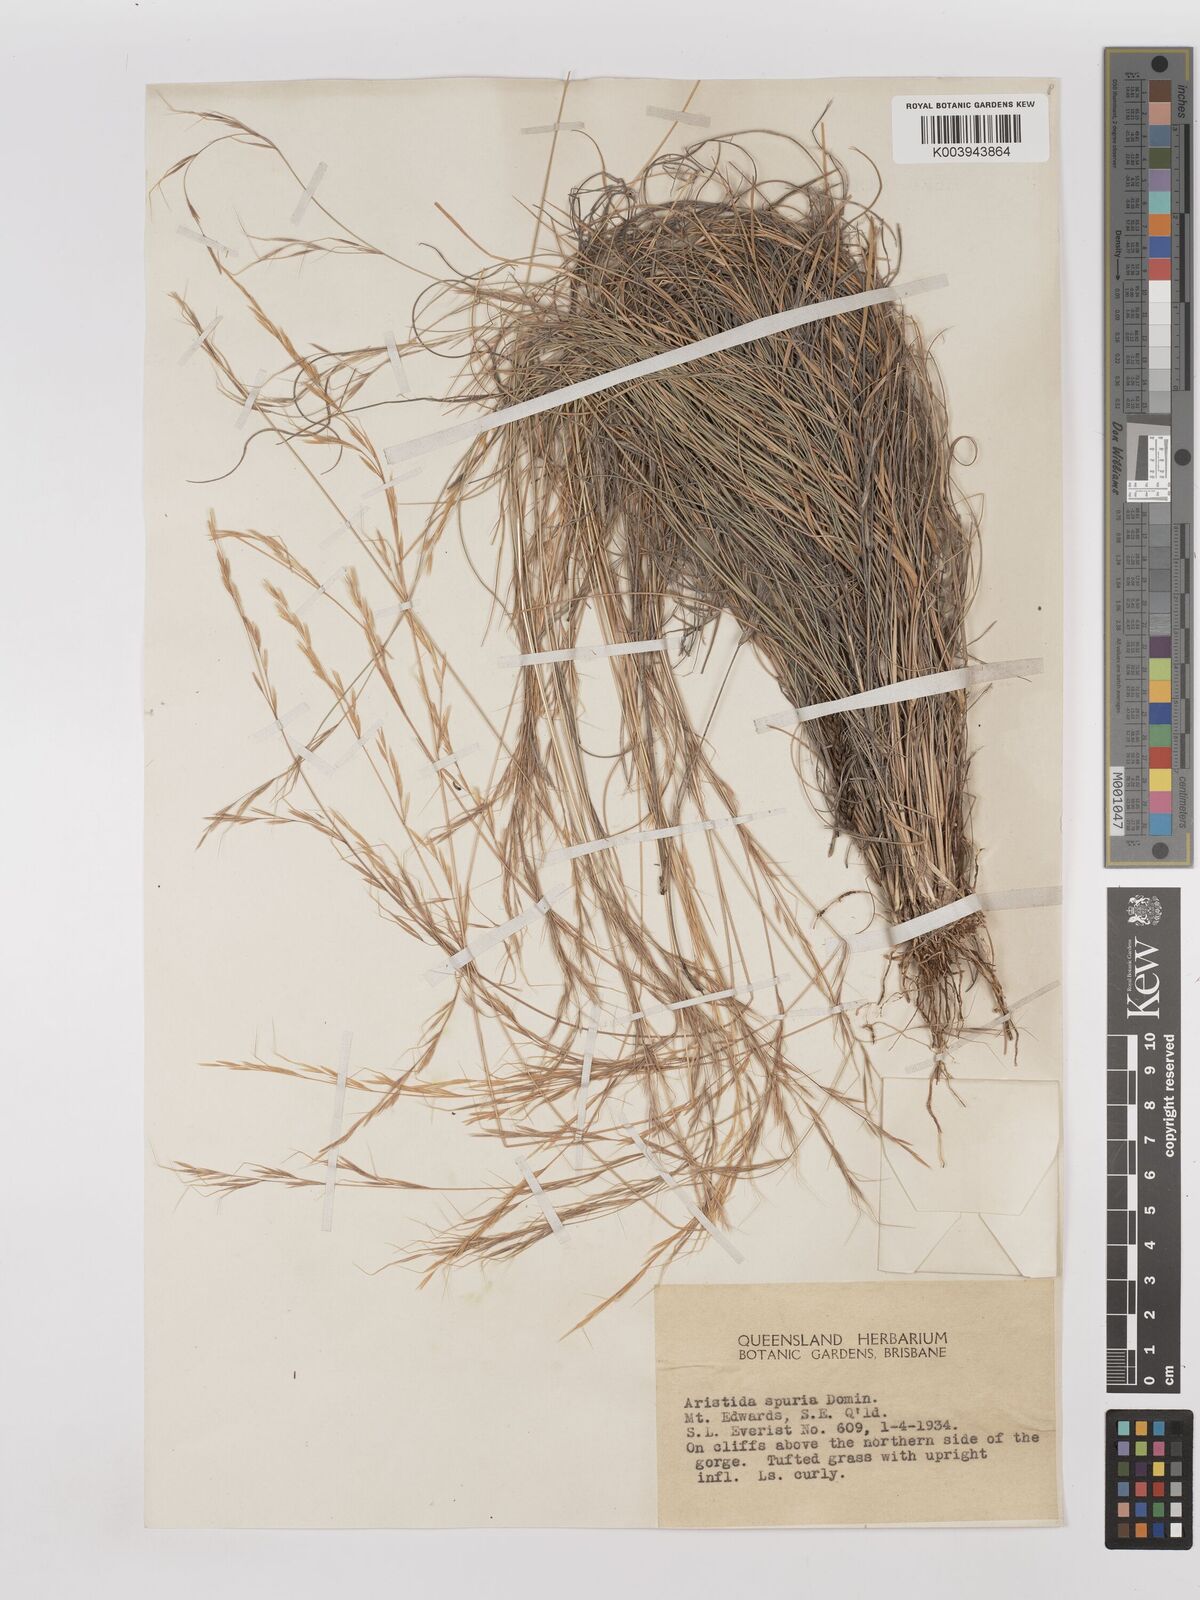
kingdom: Plantae
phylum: Tracheophyta
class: Liliopsida
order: Poales
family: Poaceae
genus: Aristida
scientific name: Aristida spuria
